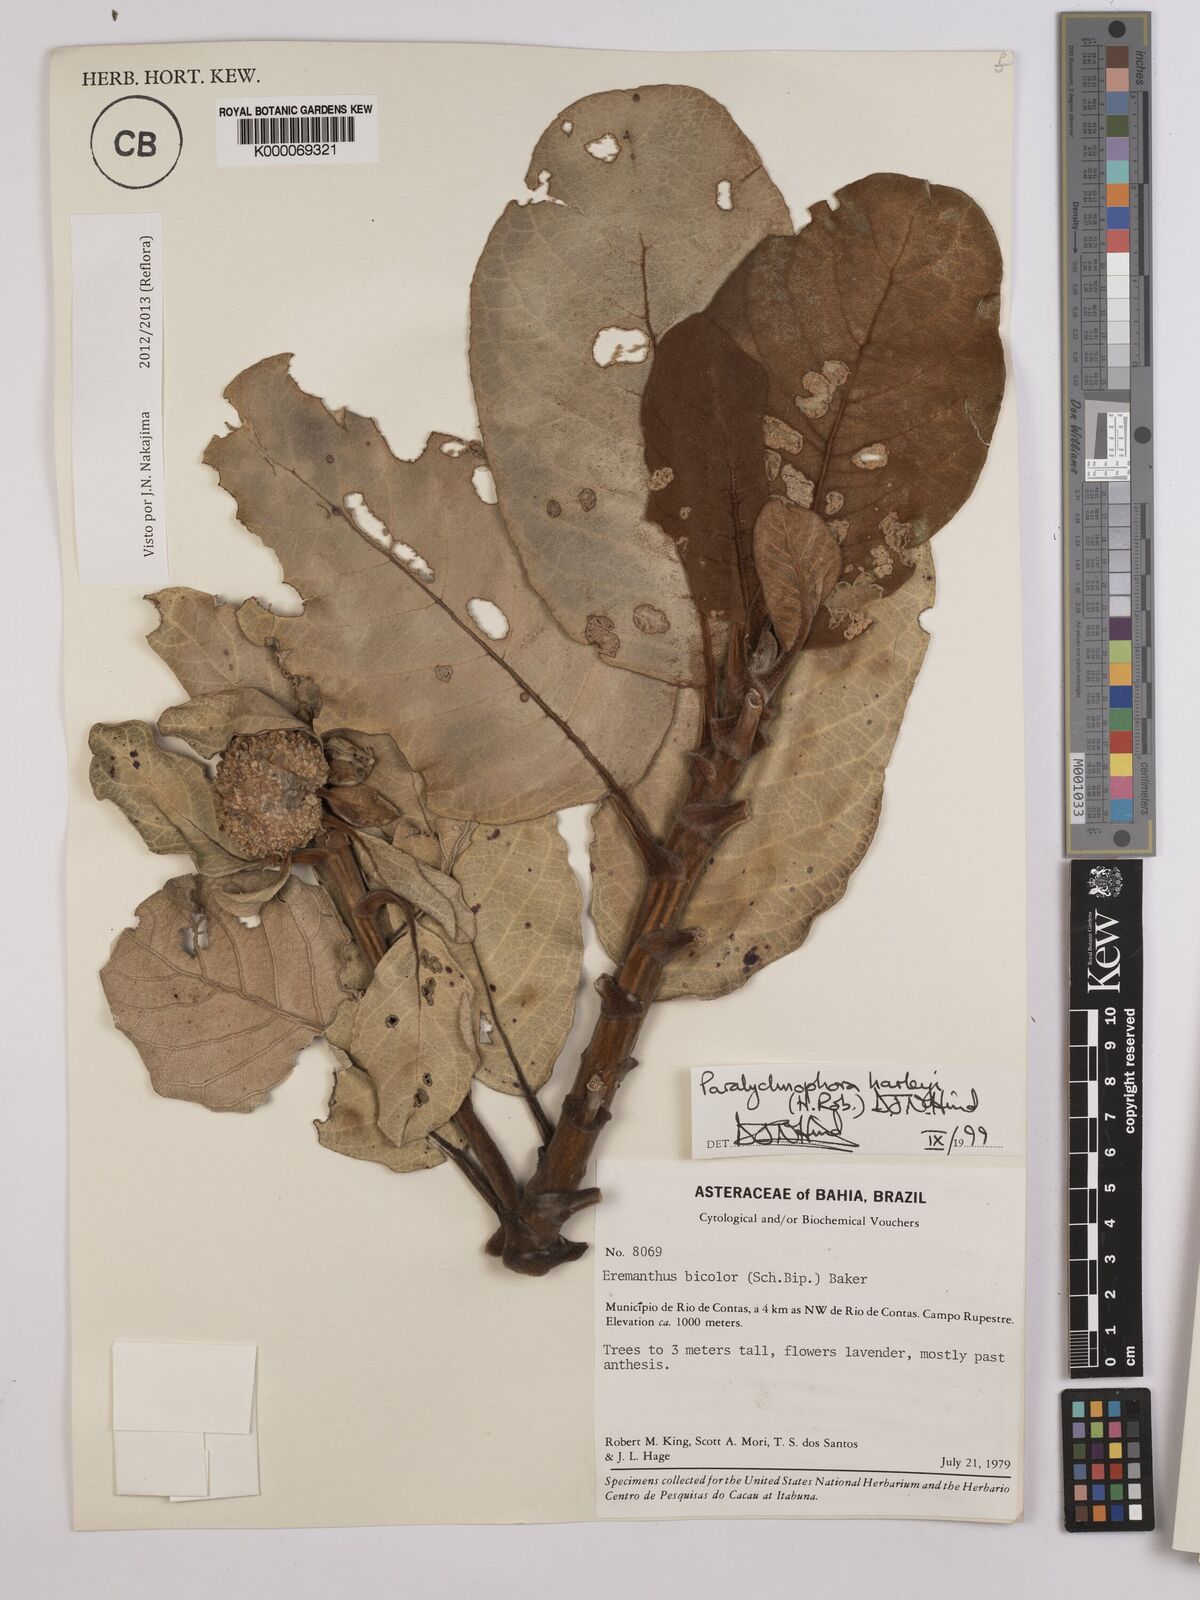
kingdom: Plantae
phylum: Tracheophyta
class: Magnoliopsida
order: Asterales
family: Asteraceae
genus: Paralychnophora
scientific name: Paralychnophora harleyi
